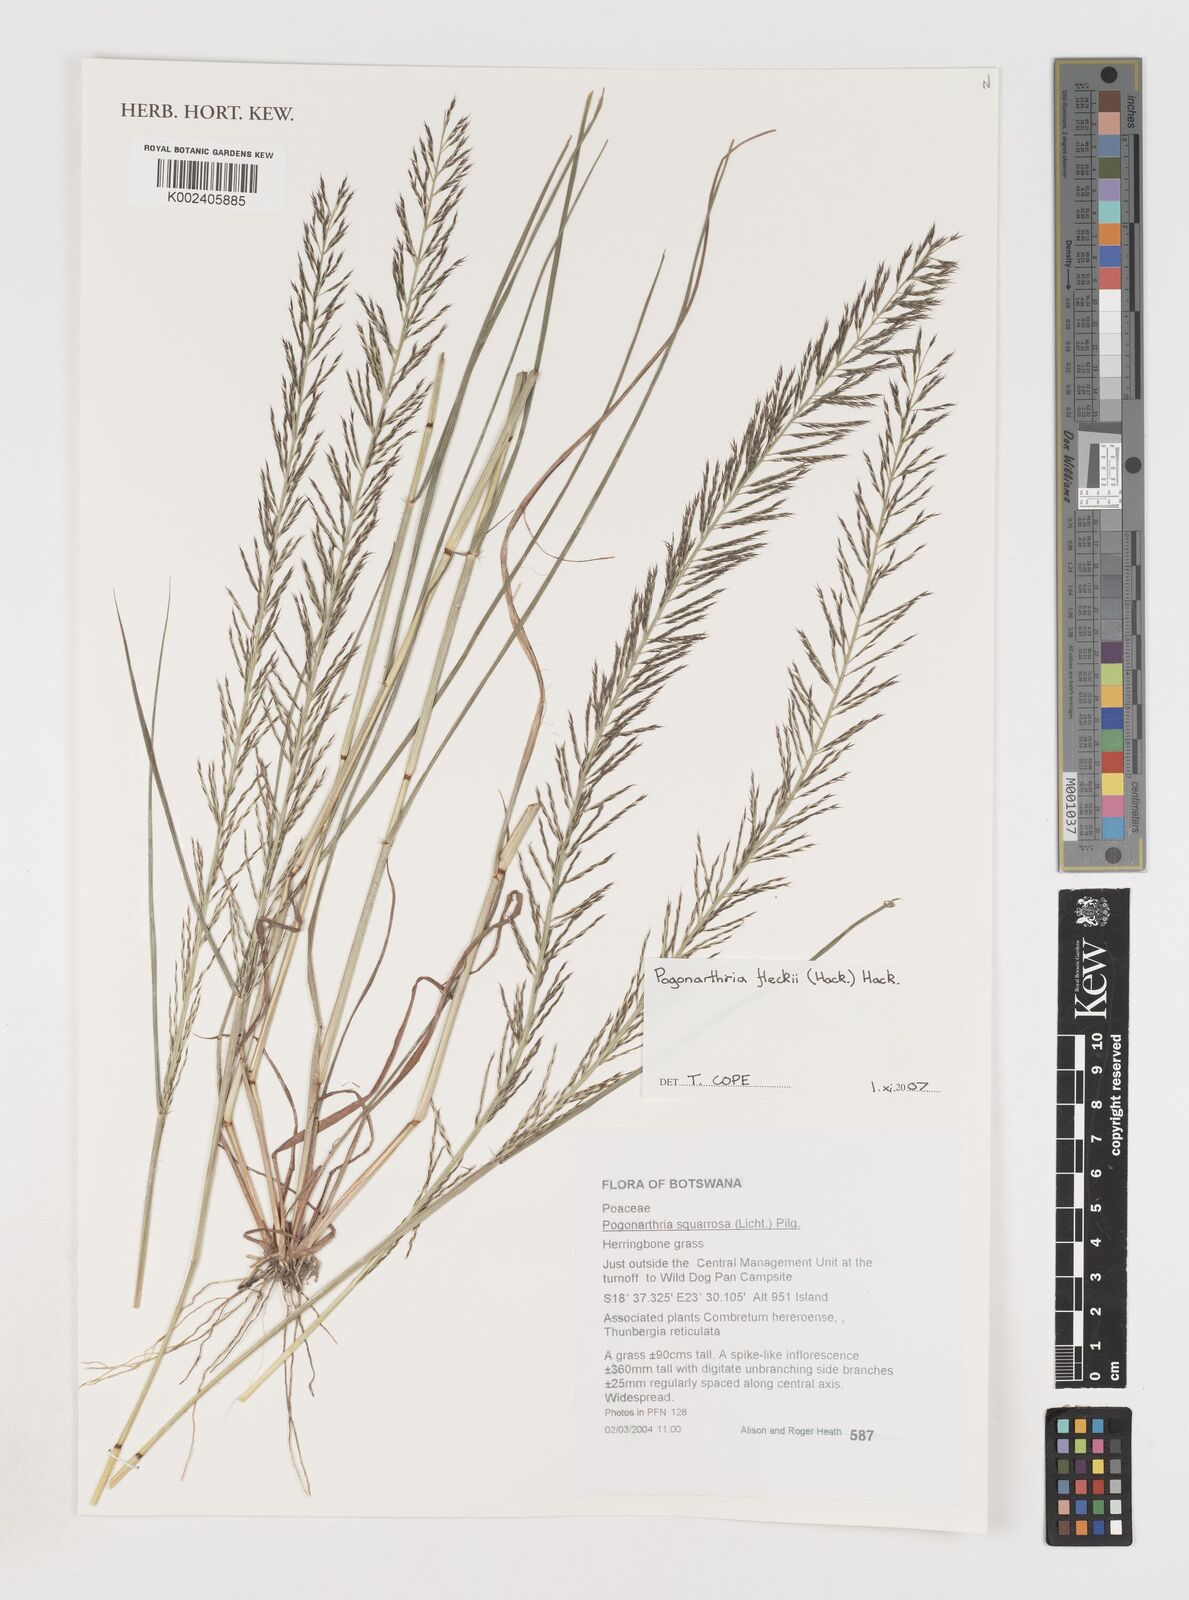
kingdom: Plantae
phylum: Tracheophyta
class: Liliopsida
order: Poales
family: Poaceae
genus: Pogonarthria
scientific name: Pogonarthria fleckii
